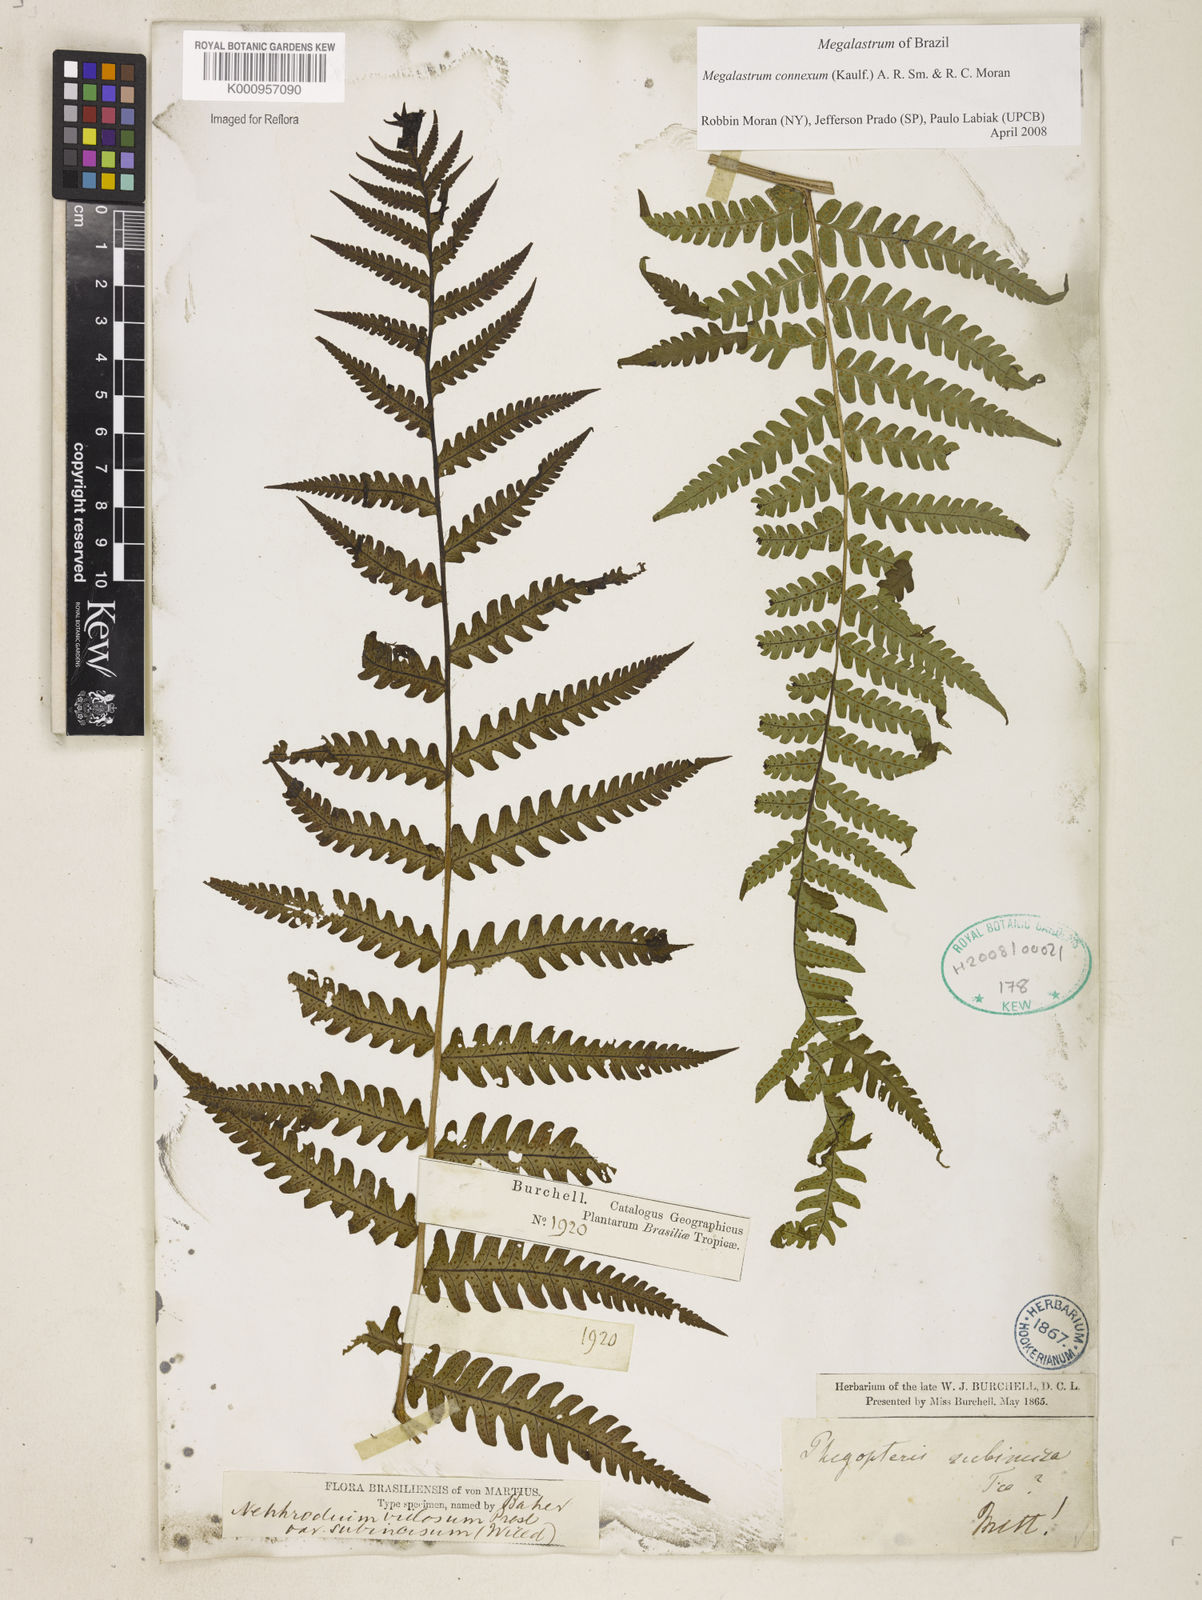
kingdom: Plantae
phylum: Tracheophyta
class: Polypodiopsida
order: Polypodiales
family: Dryopteridaceae
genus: Megalastrum
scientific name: Megalastrum connexum
